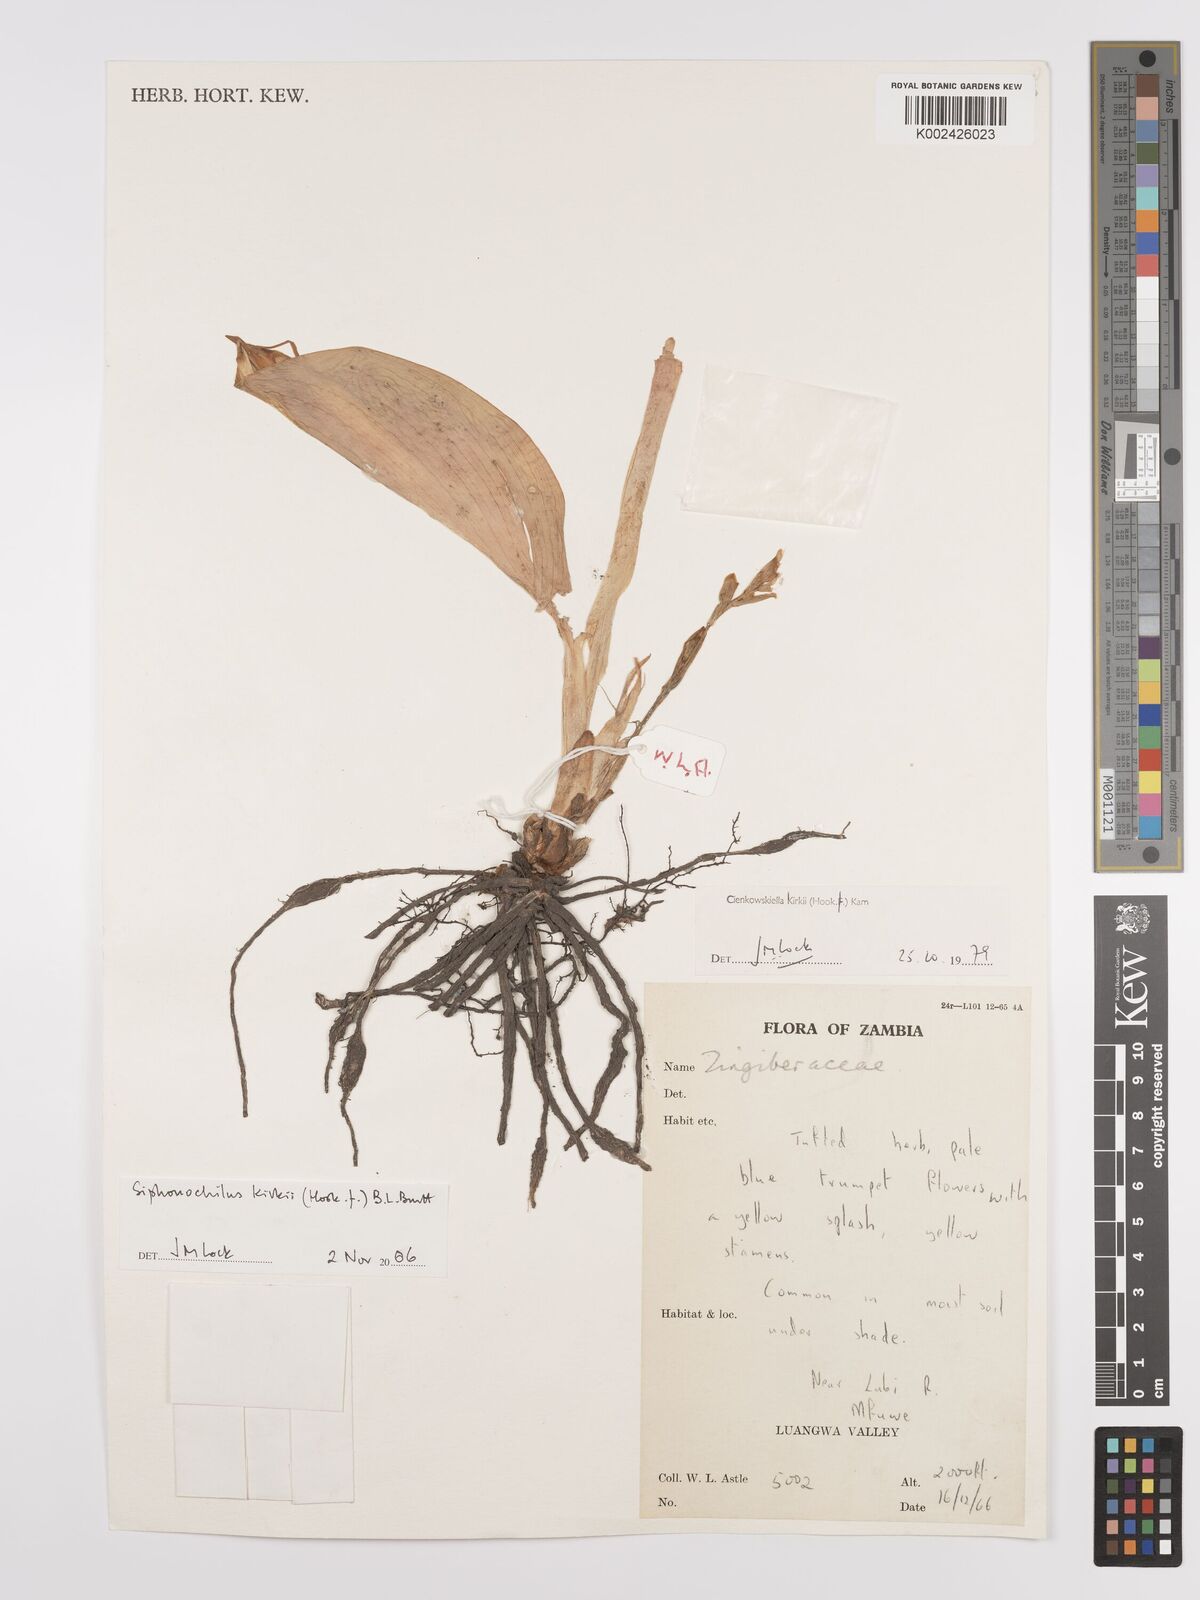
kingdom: Plantae
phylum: Tracheophyta
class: Liliopsida
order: Zingiberales
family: Zingiberaceae
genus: Siphonochilus
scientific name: Siphonochilus kirkii
